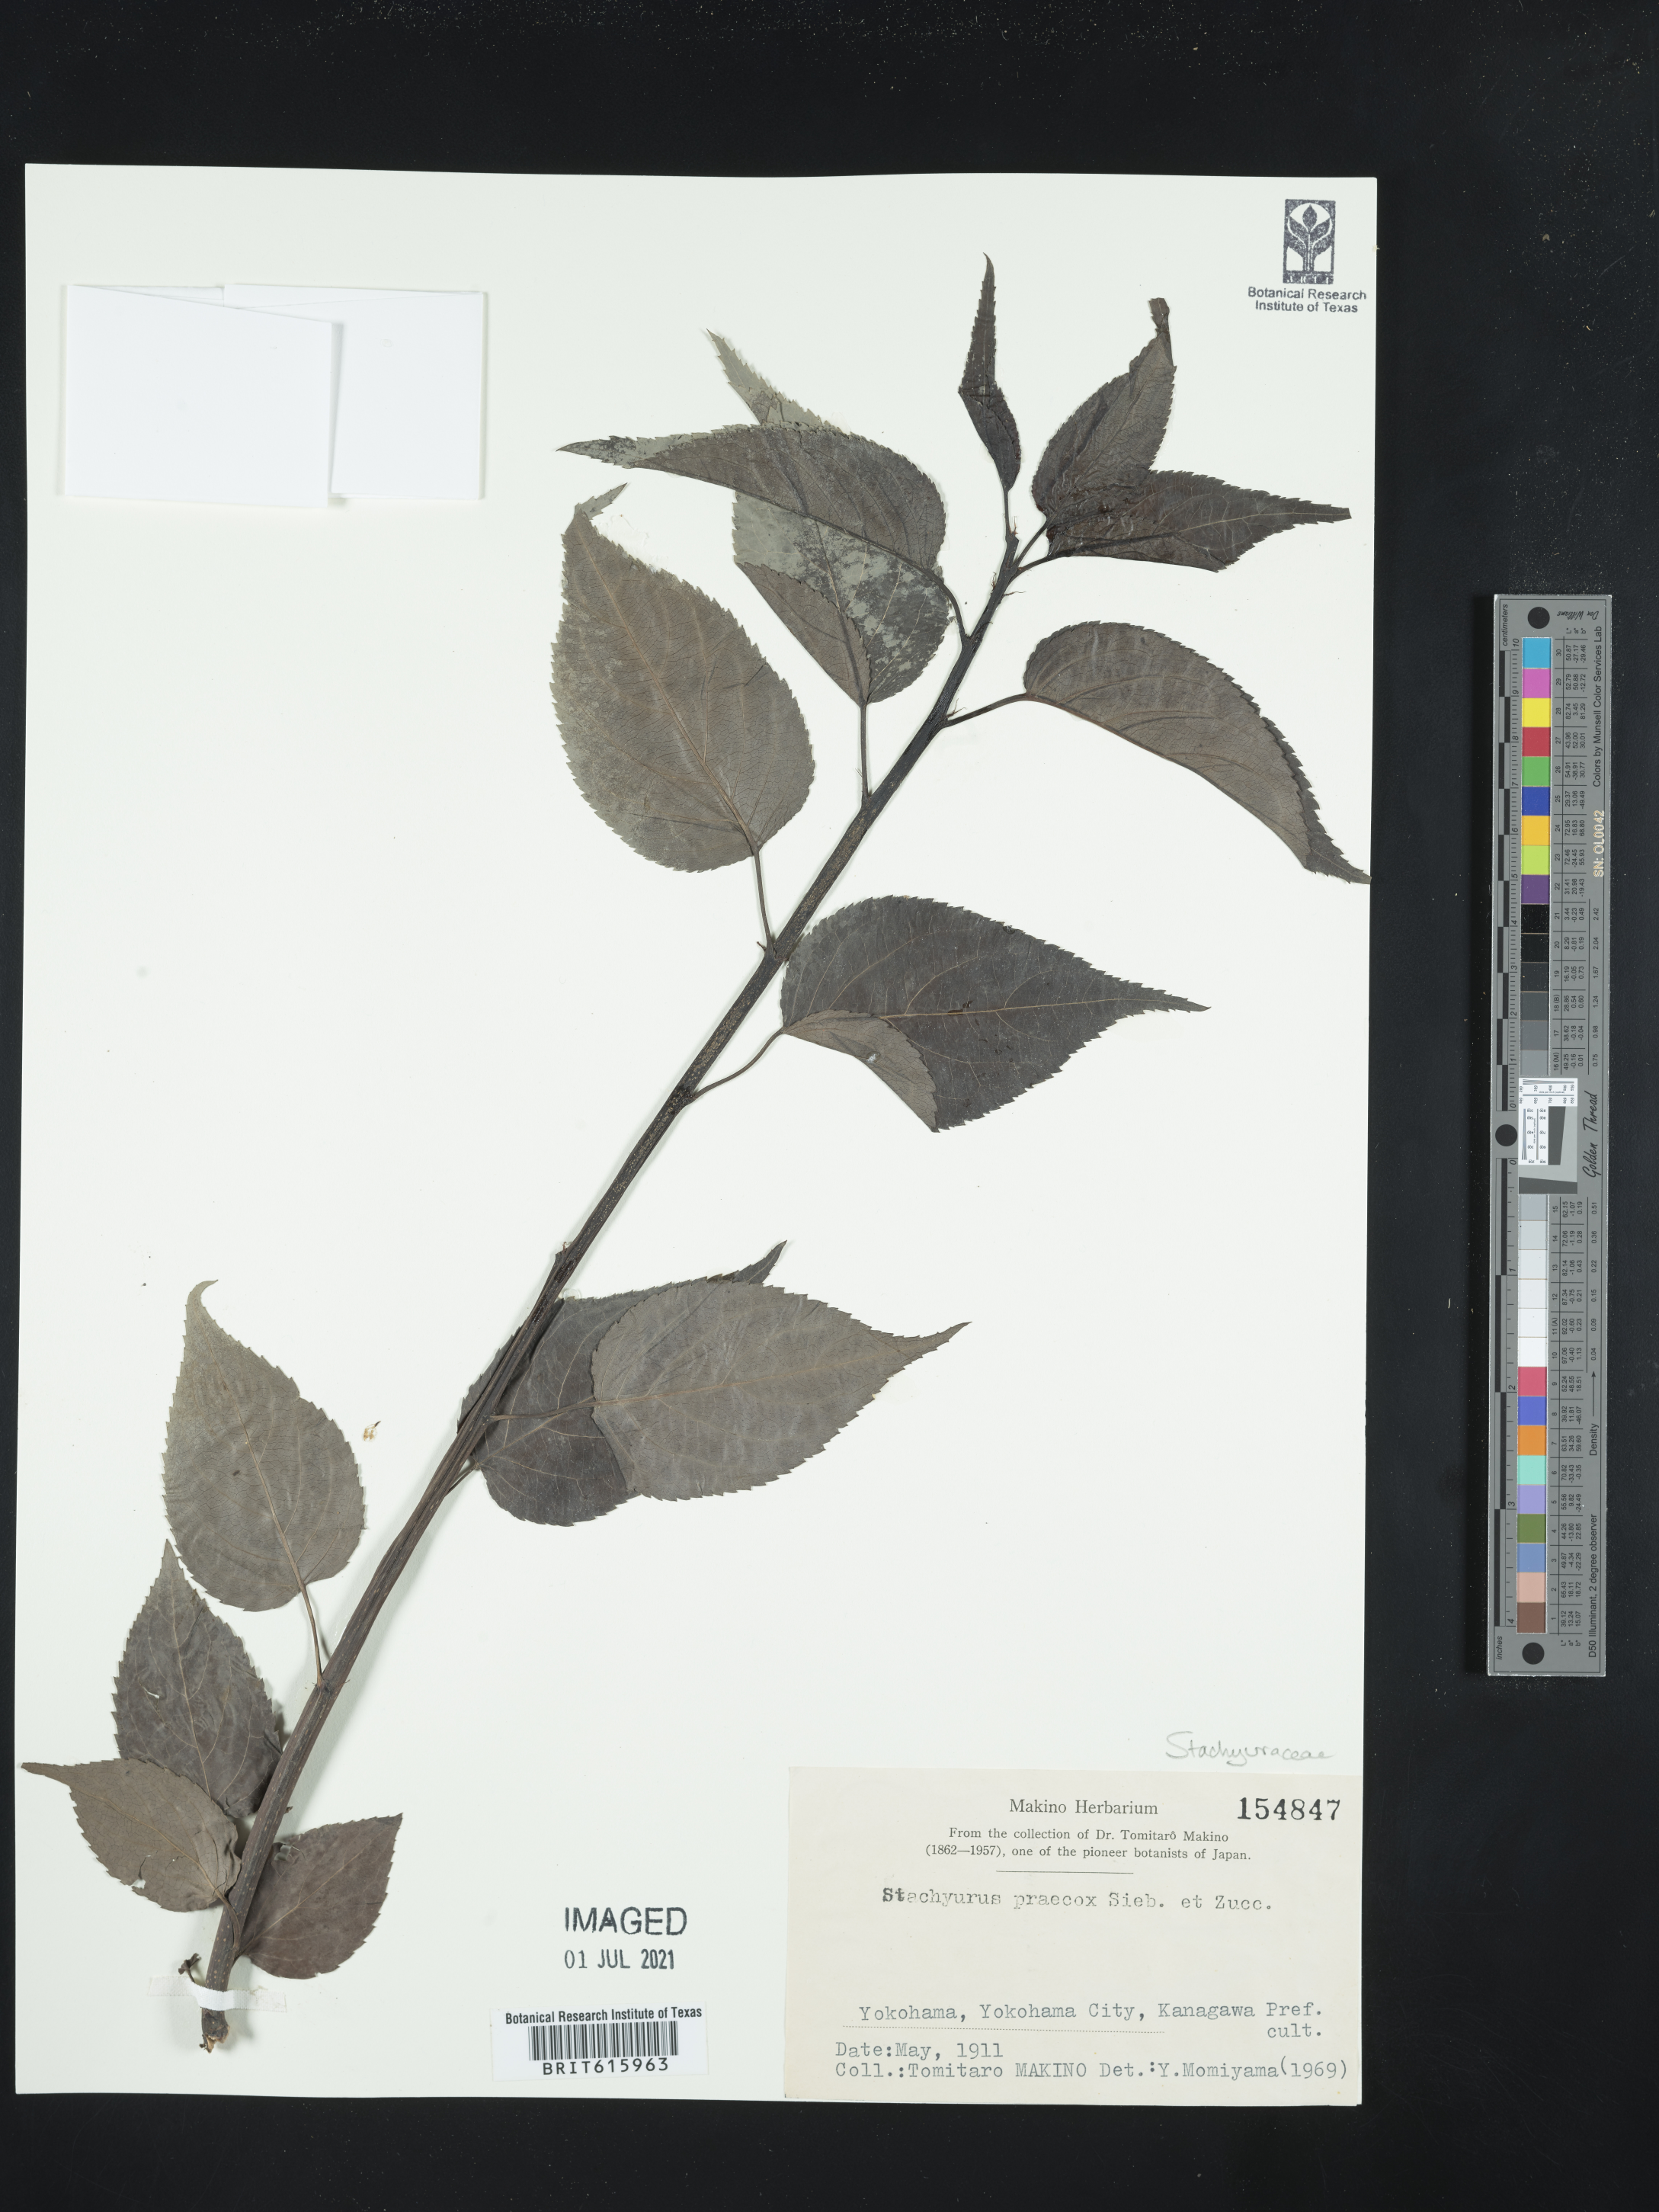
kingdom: Plantae
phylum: Tracheophyta
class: Magnoliopsida
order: Crossosomatales
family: Stachyuraceae
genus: Stachyurus
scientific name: Stachyurus praecox
